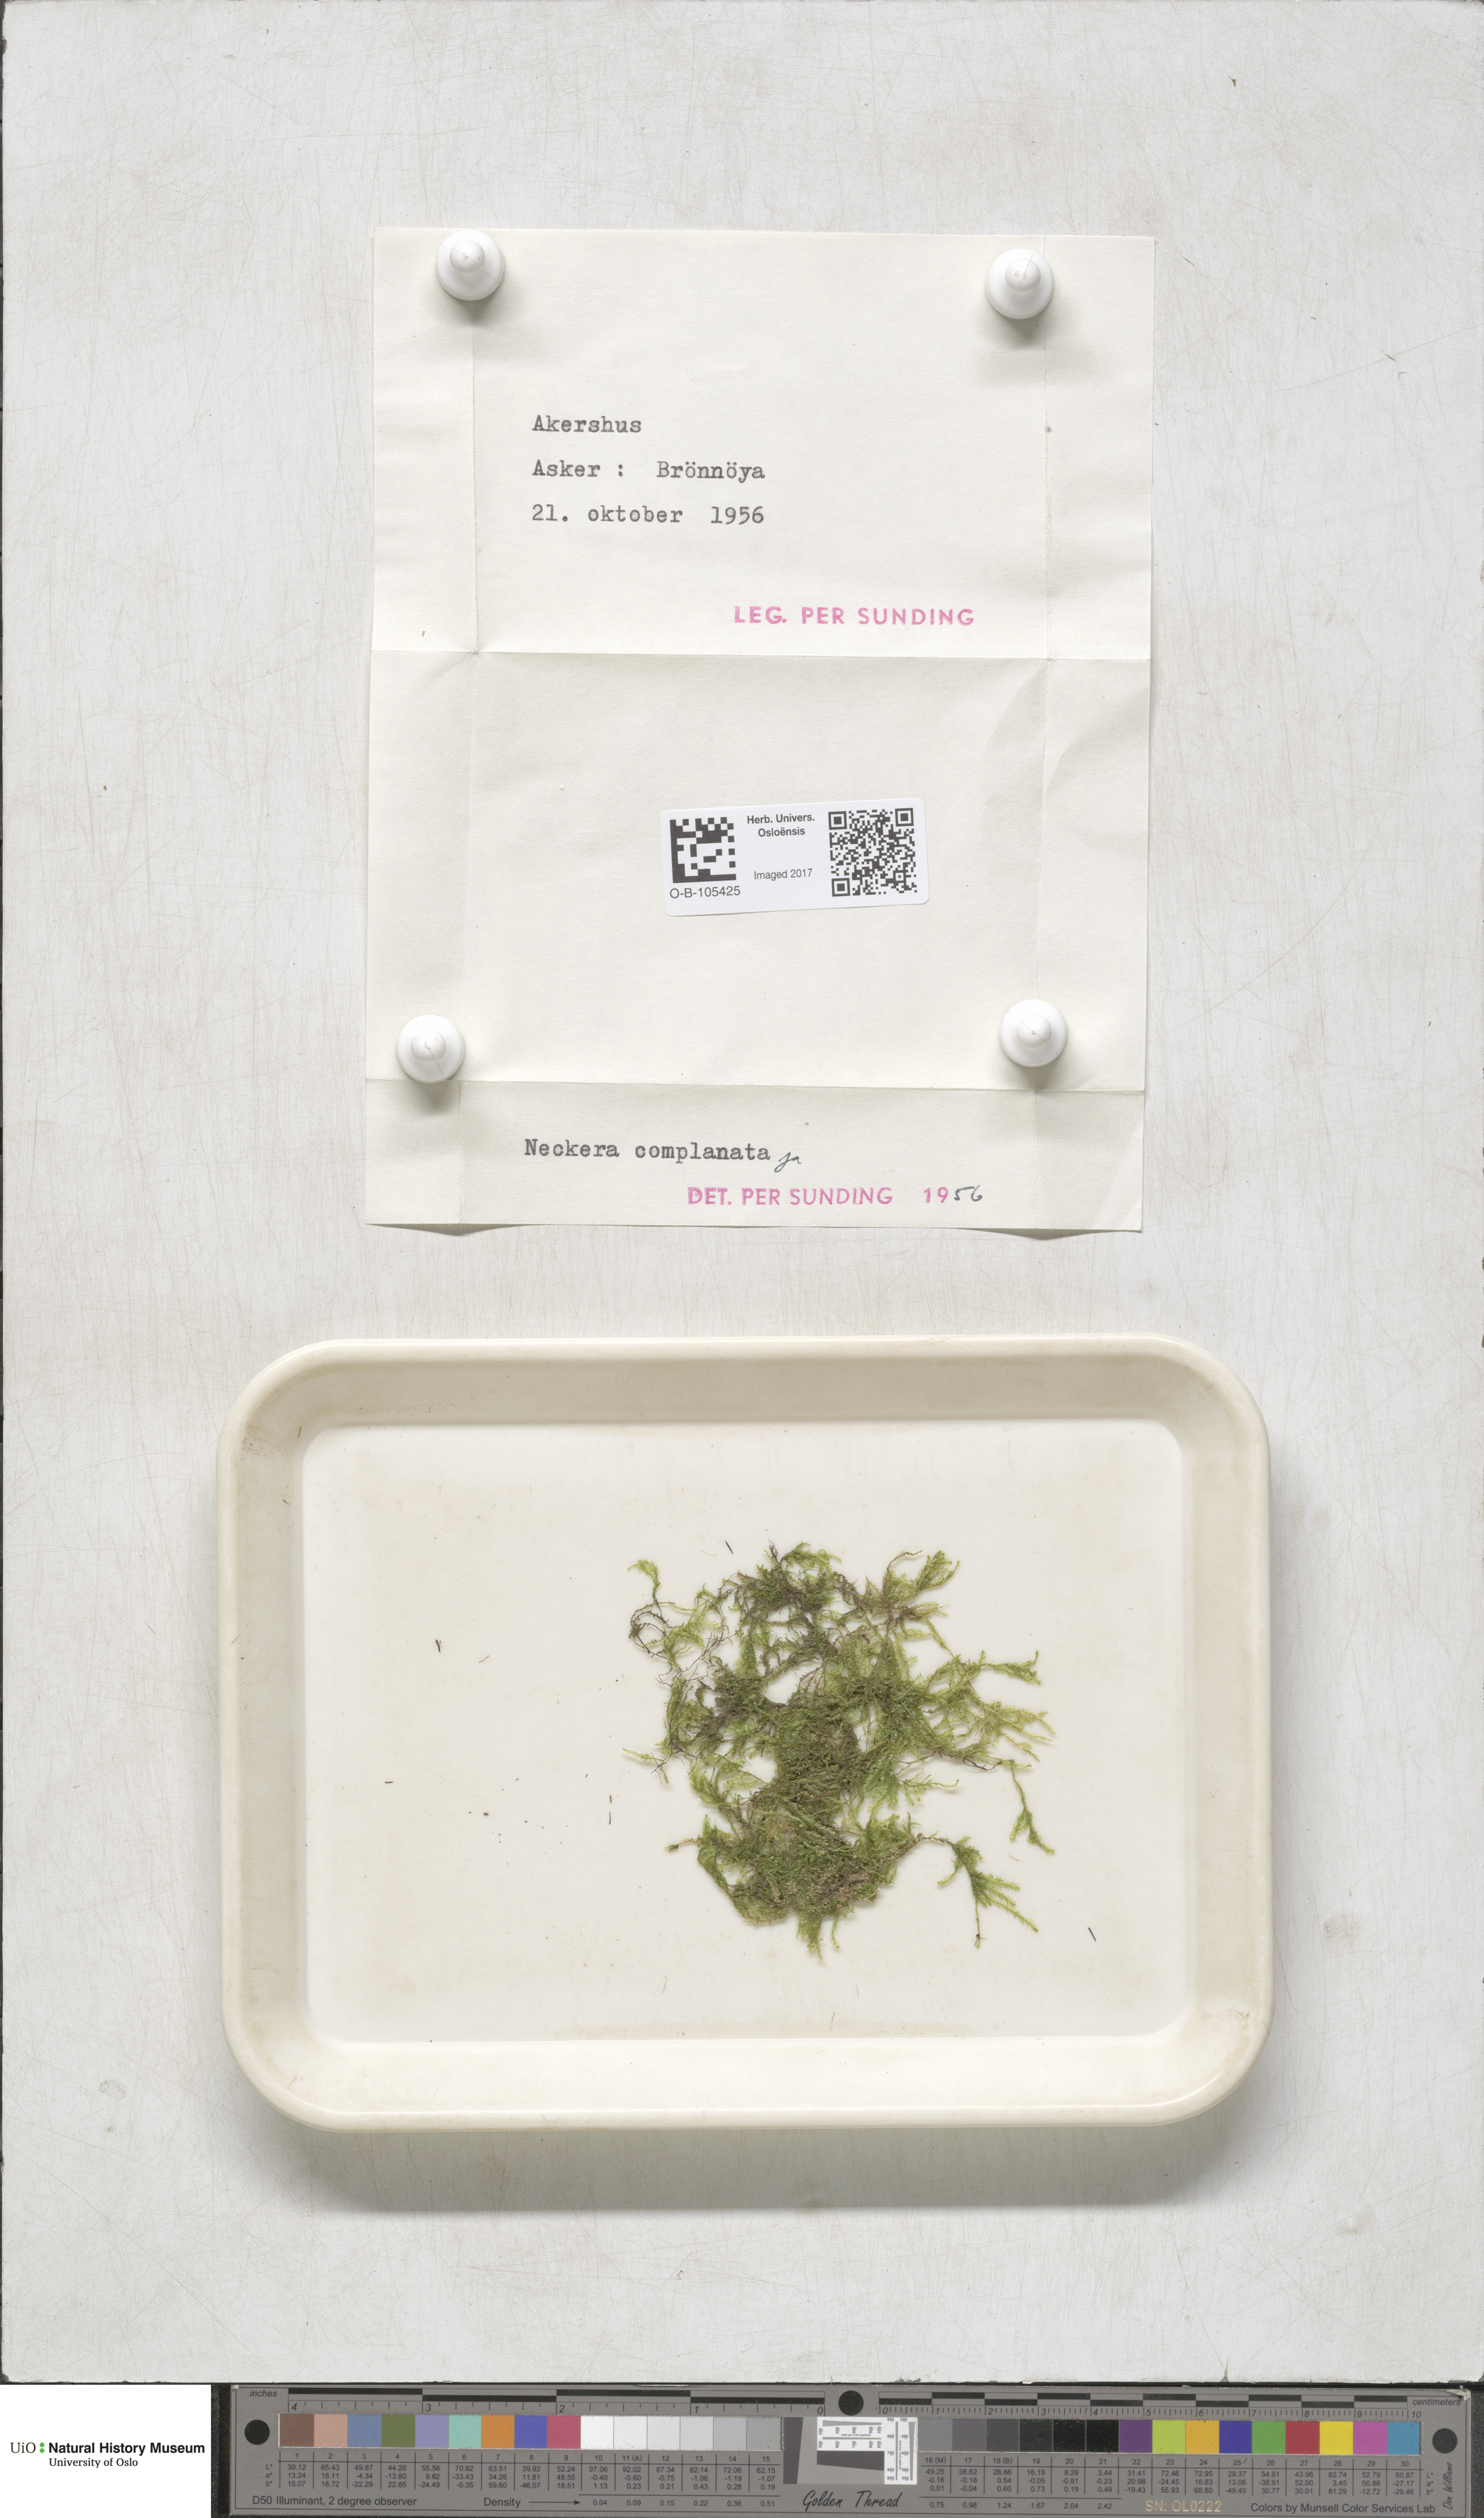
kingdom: Plantae
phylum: Bryophyta
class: Bryopsida
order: Hypnales
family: Neckeraceae
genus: Alleniella
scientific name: Alleniella complanata
